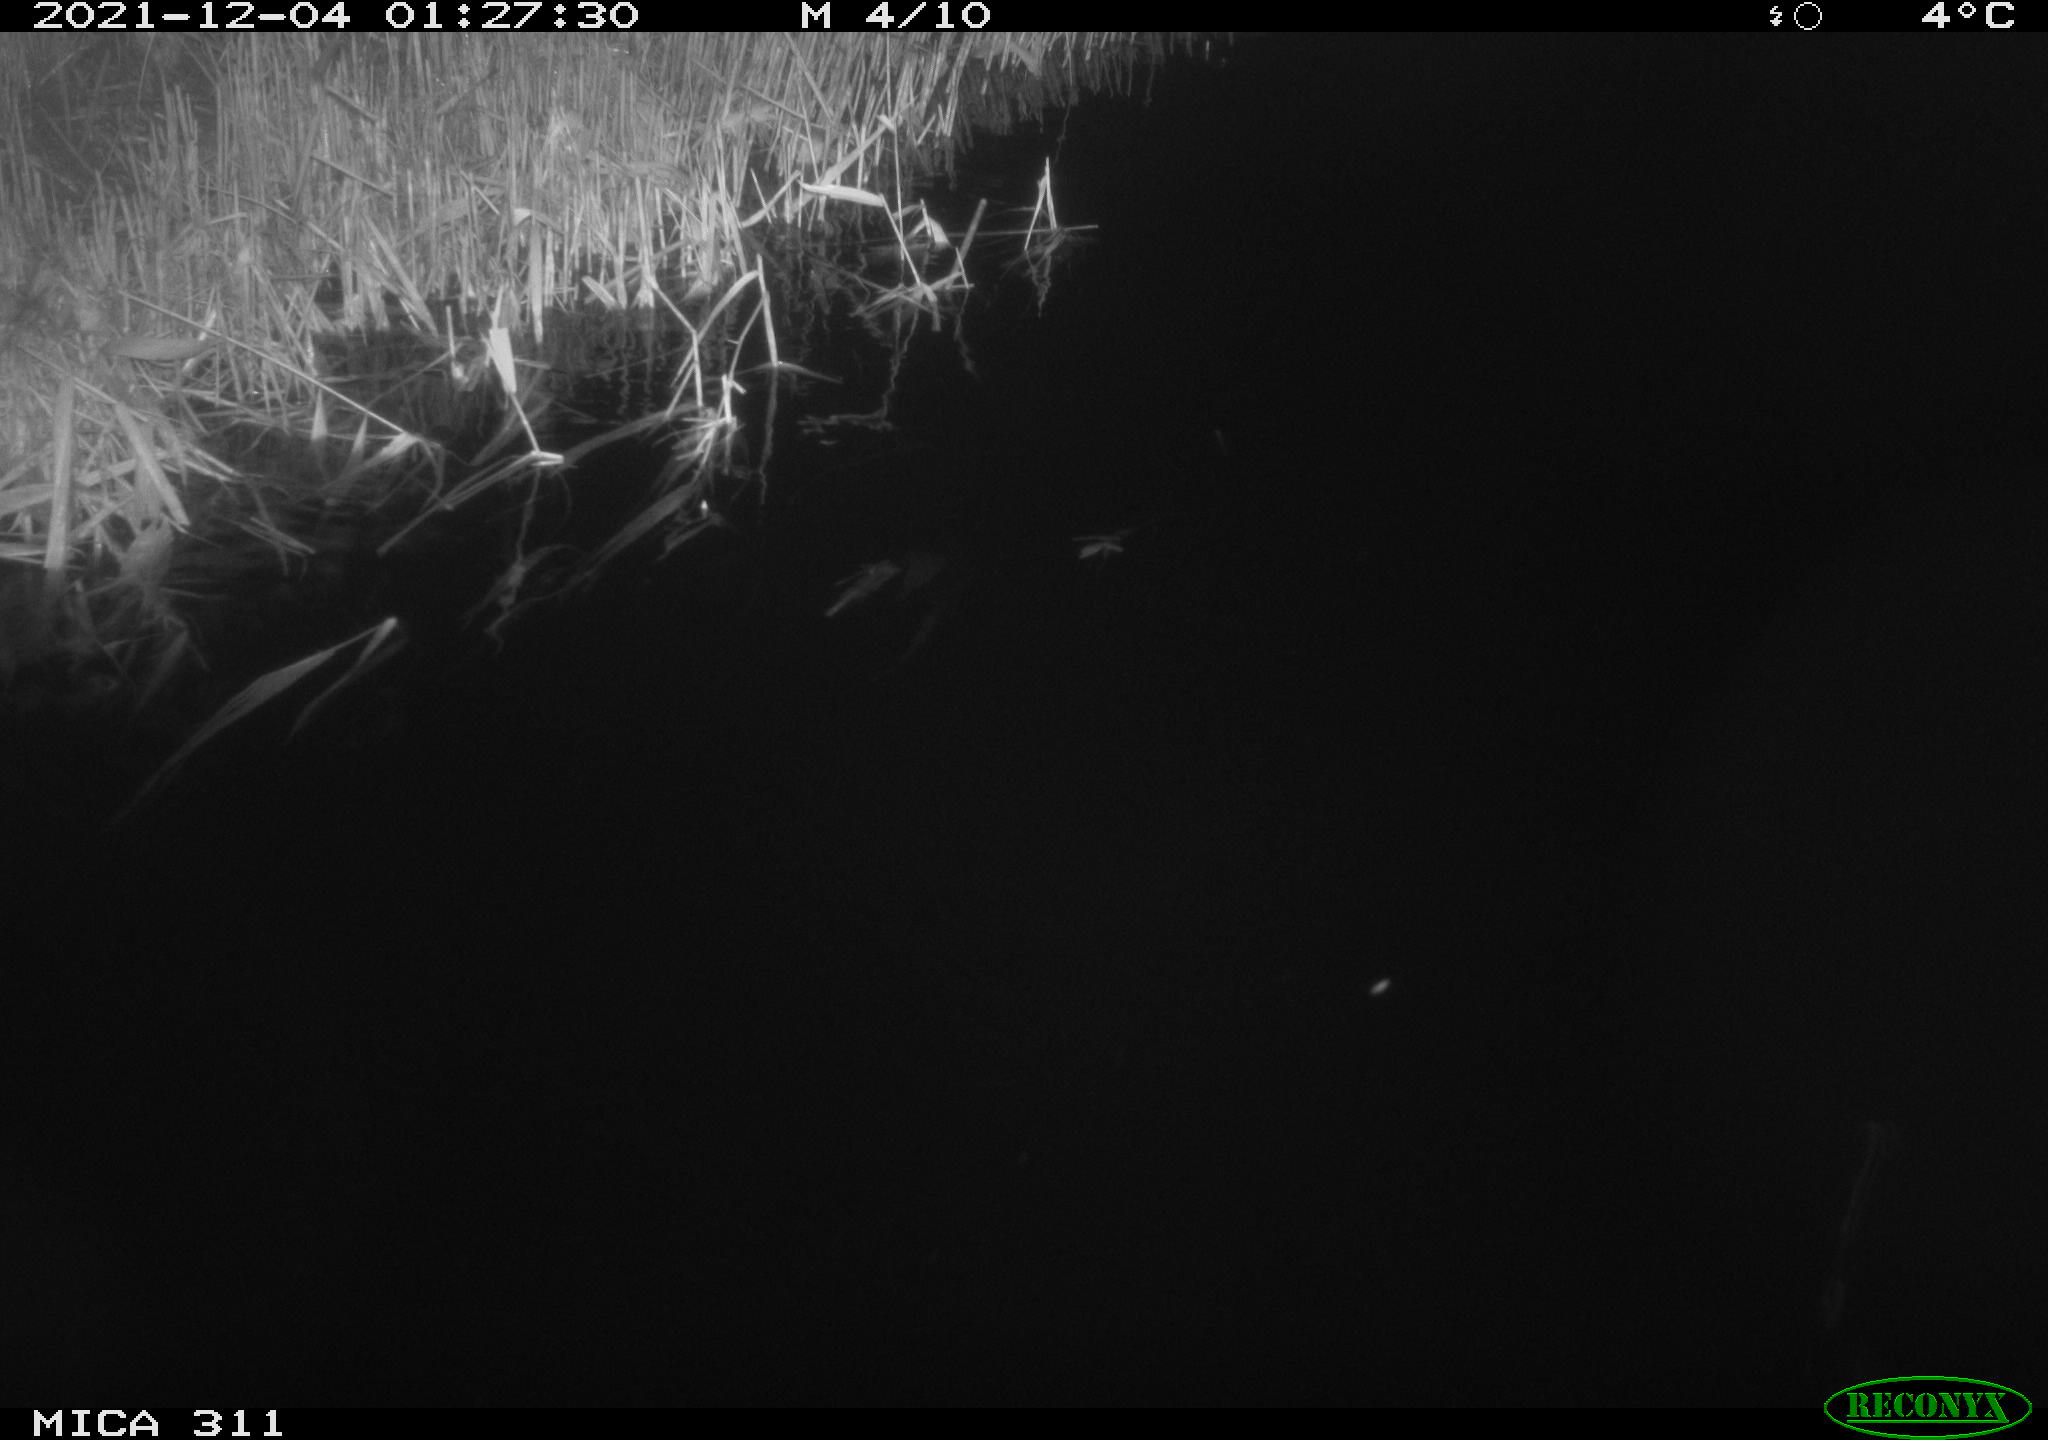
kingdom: Animalia
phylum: Chordata
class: Mammalia
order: Rodentia
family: Muridae
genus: Rattus
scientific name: Rattus norvegicus
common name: Brown rat
